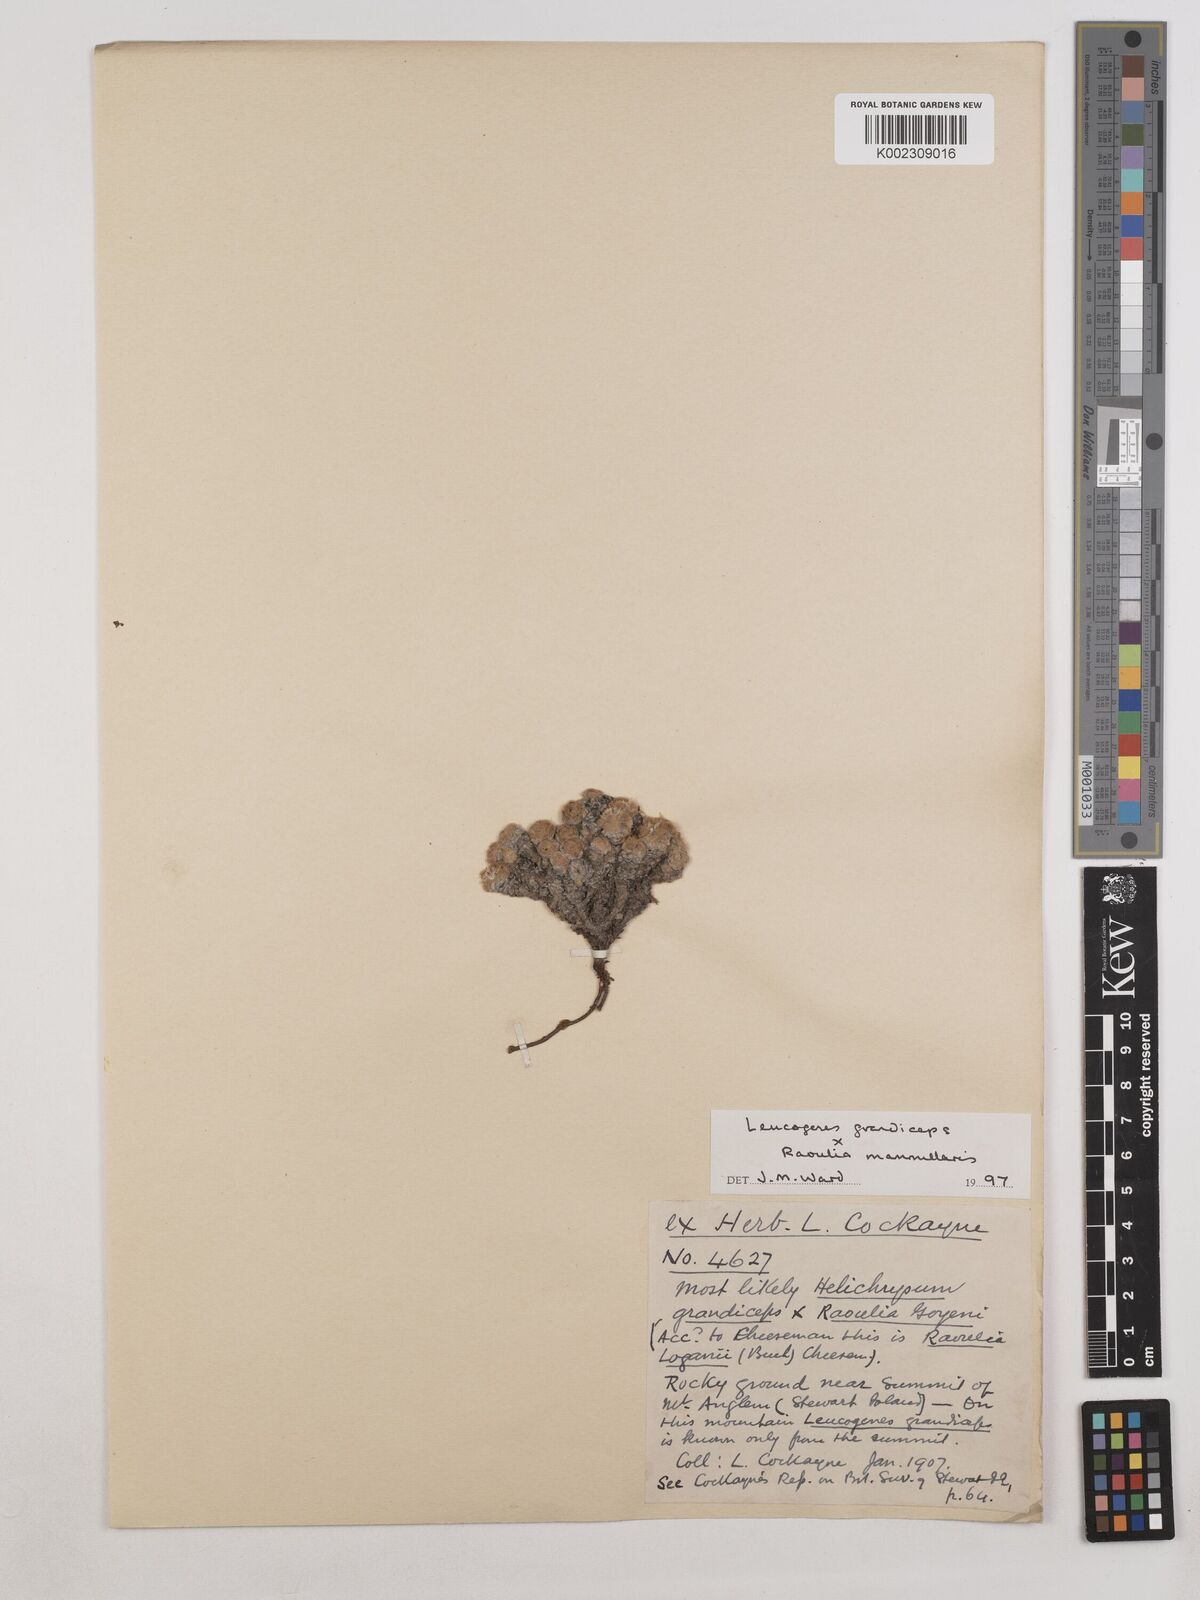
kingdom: Plantae
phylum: Tracheophyta
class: Magnoliopsida
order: Asterales
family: Asteraceae
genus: Leucogenes
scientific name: Leucogenes grandiceps
